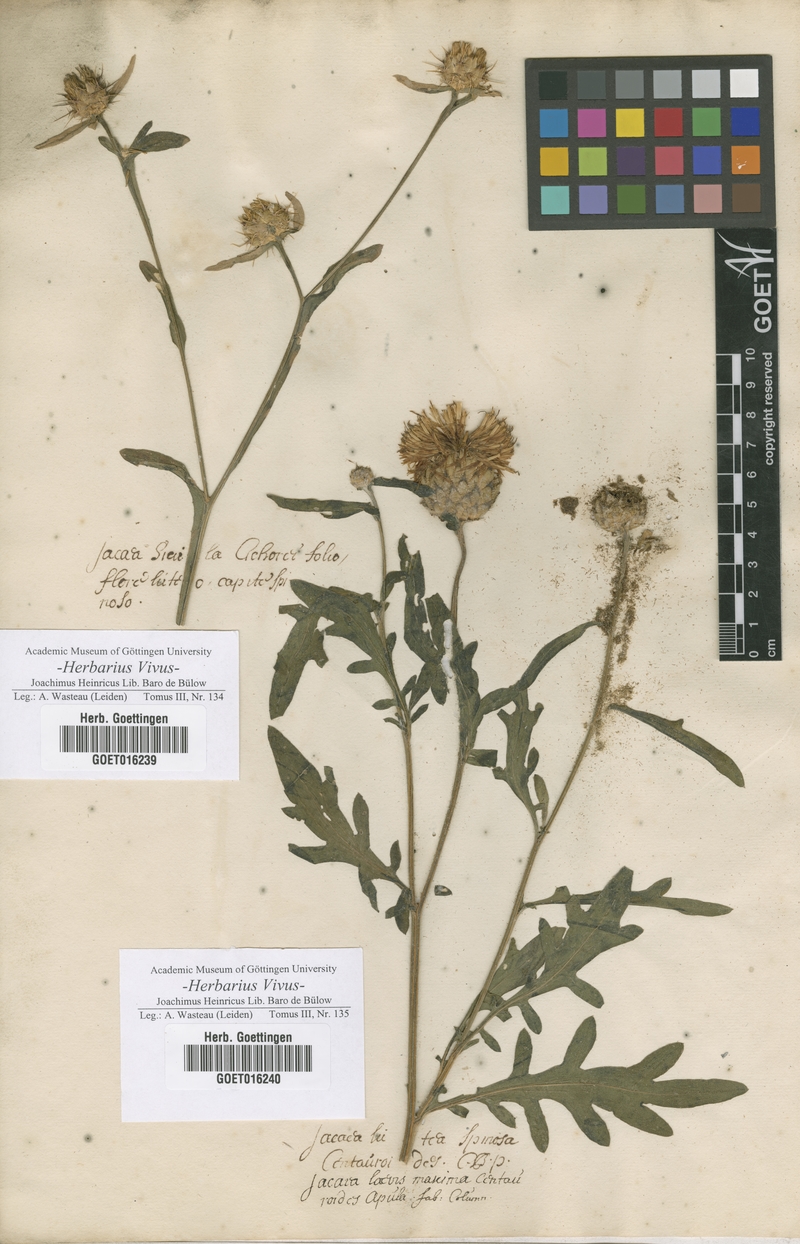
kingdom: Plantae
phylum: Tracheophyta
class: Magnoliopsida
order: Asterales
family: Asteraceae
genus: Centaurea
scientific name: Centaurea sicula
